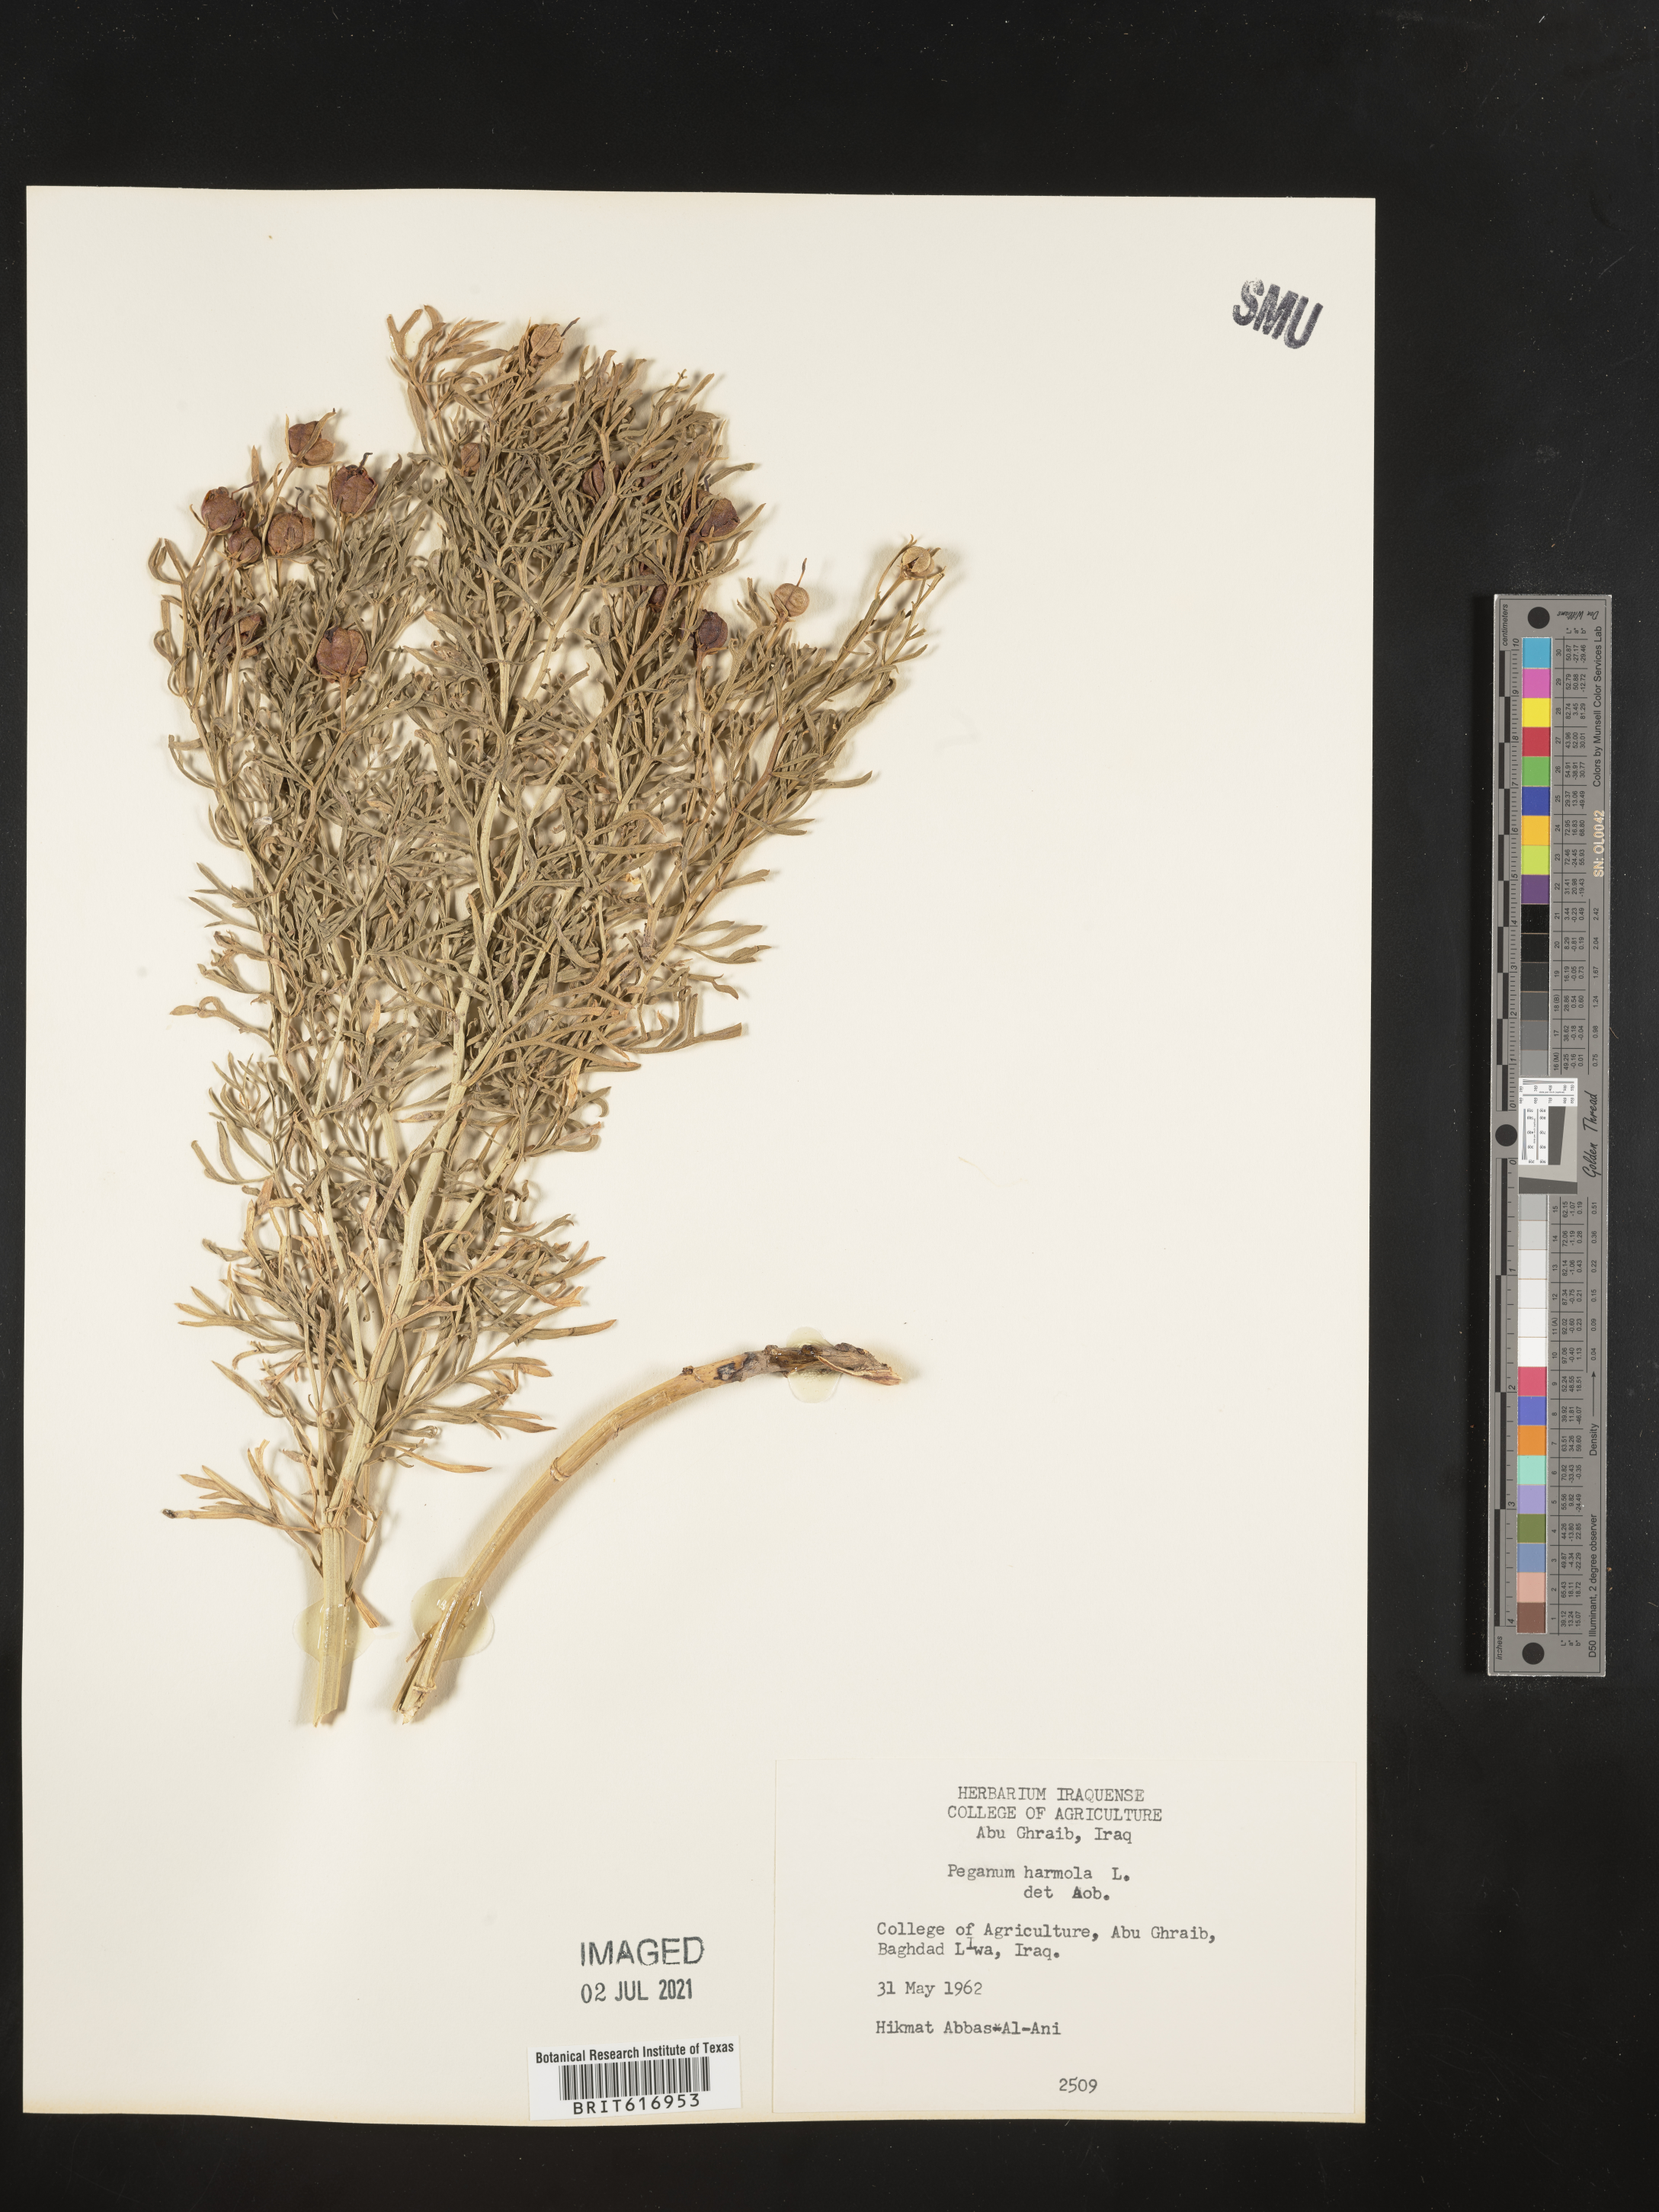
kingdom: Plantae
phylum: Tracheophyta
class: Magnoliopsida
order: Sapindales
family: Tetradiclidaceae
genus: Peganum
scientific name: Peganum harmala
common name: Harmal peganum
